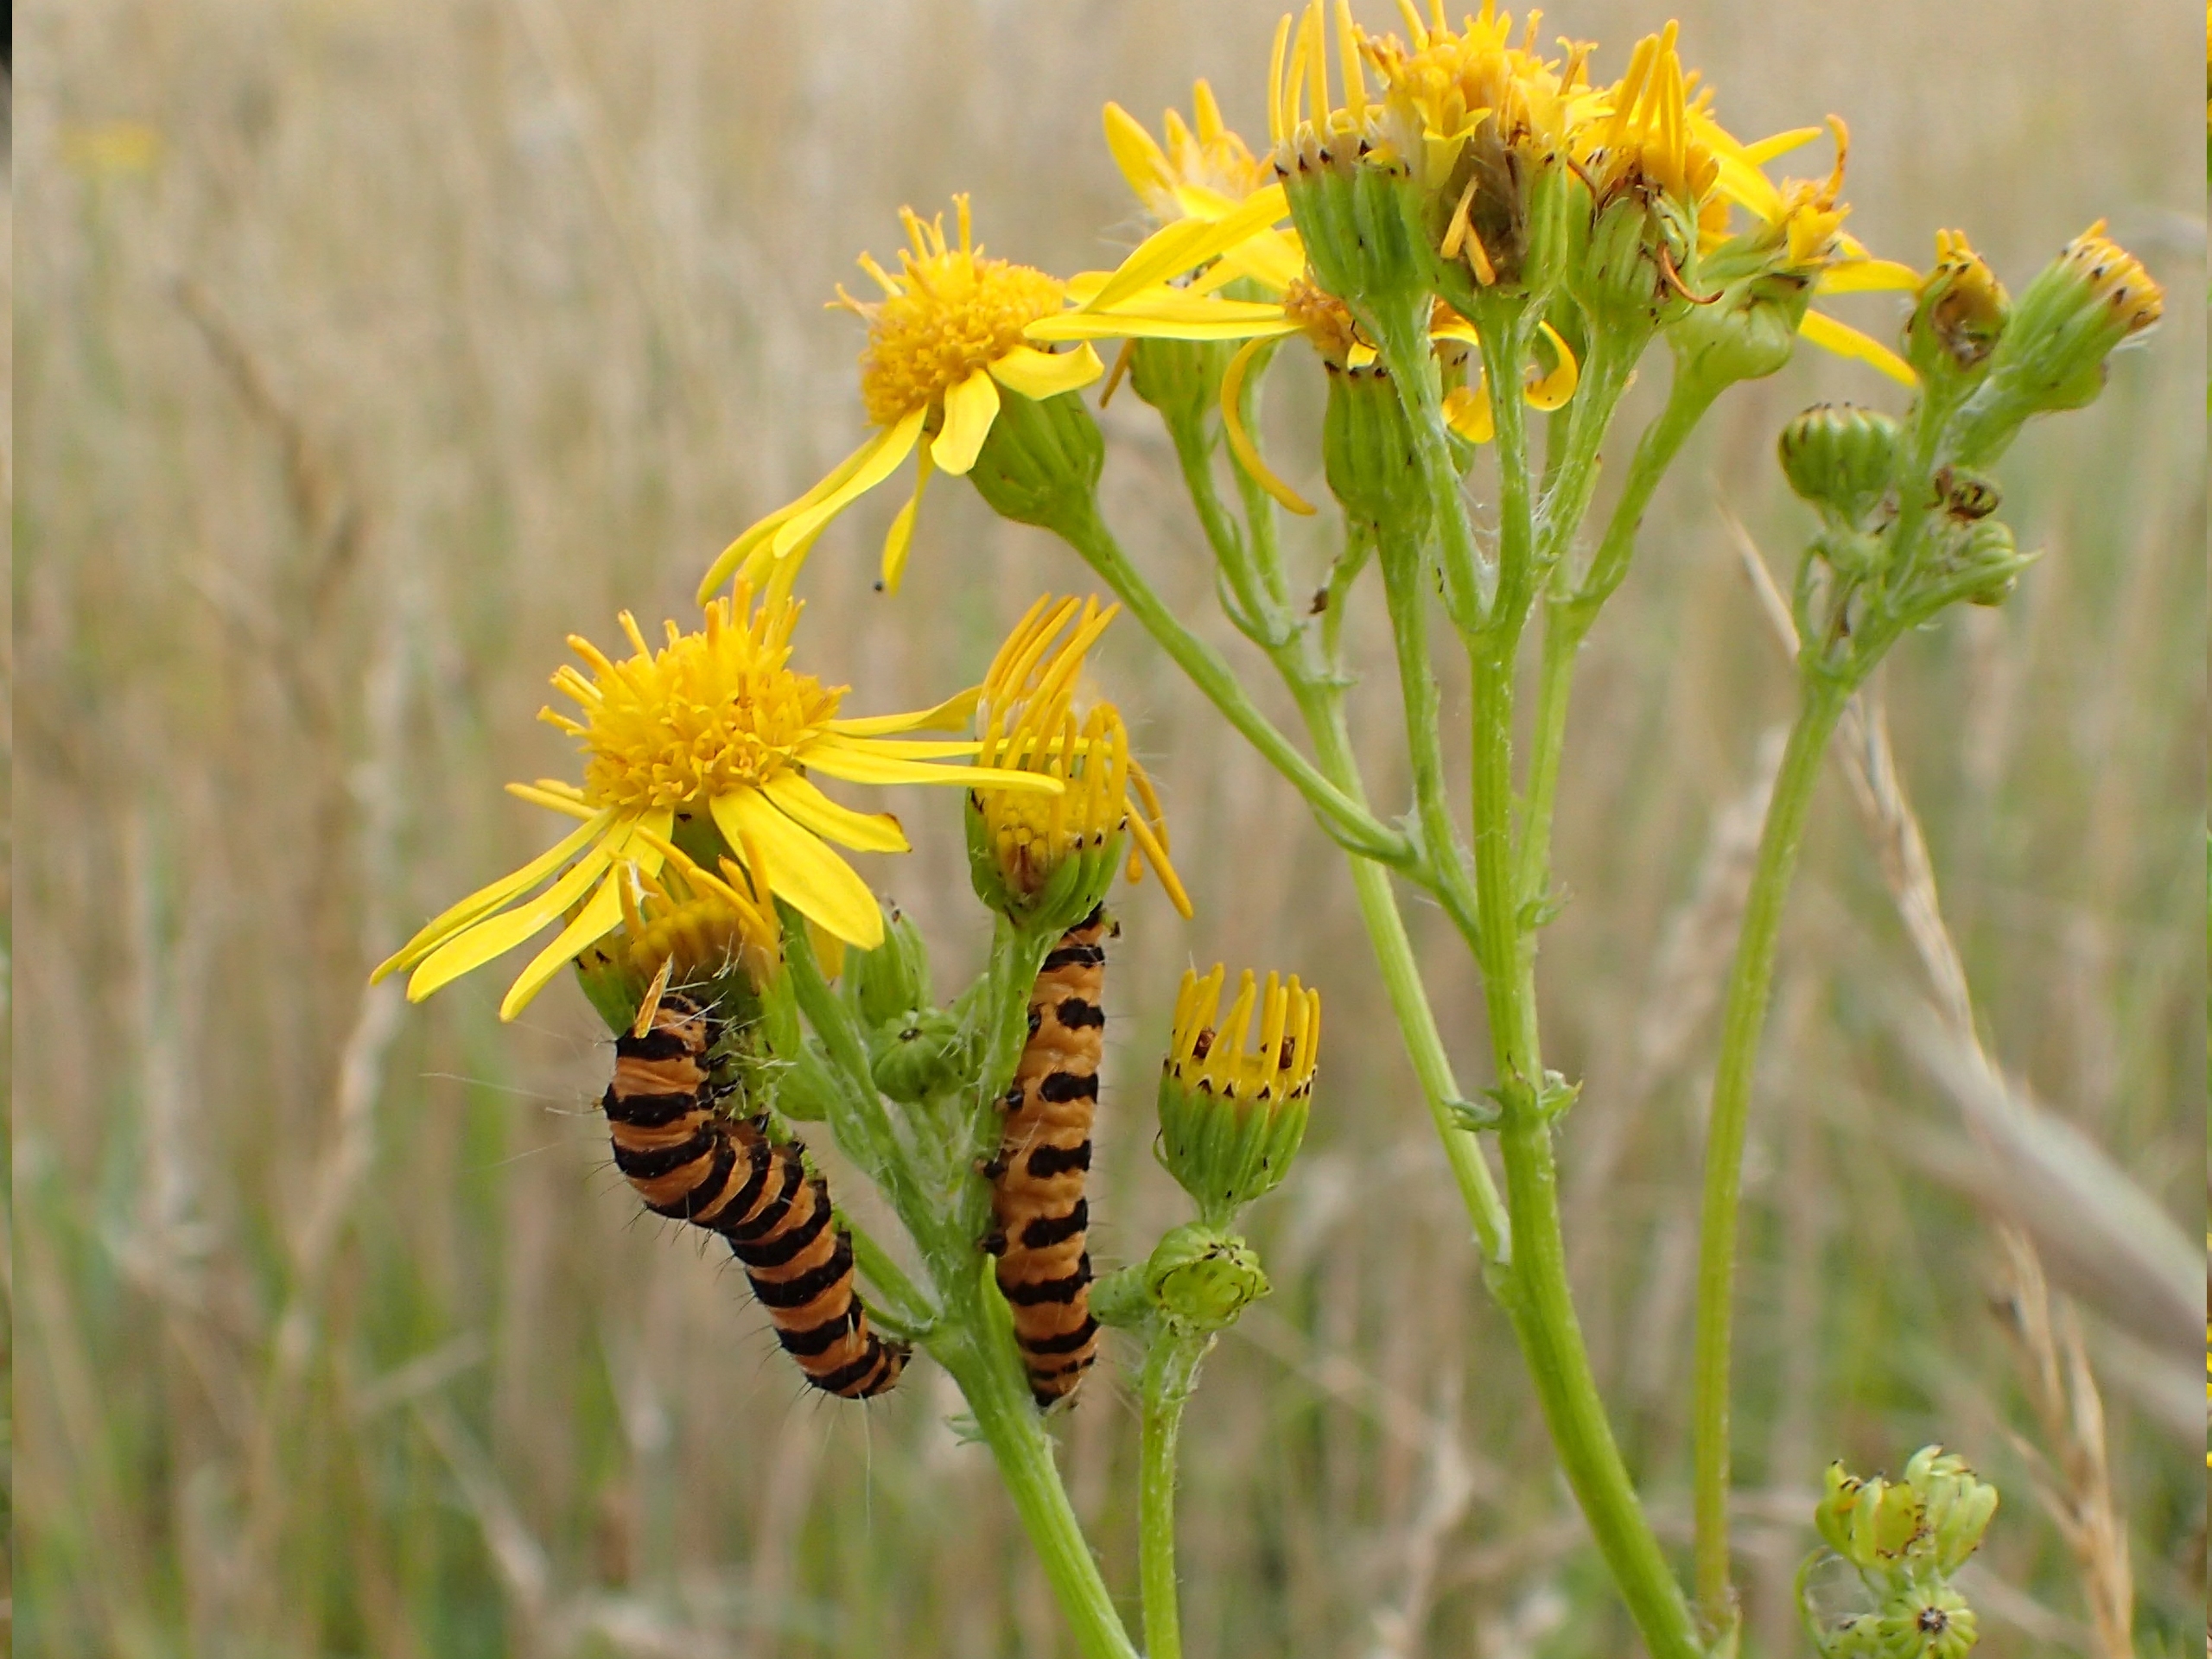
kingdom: Animalia
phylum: Arthropoda
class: Insecta
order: Lepidoptera
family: Erebidae
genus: Tyria
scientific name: Tyria jacobaeae
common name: Blodplet
